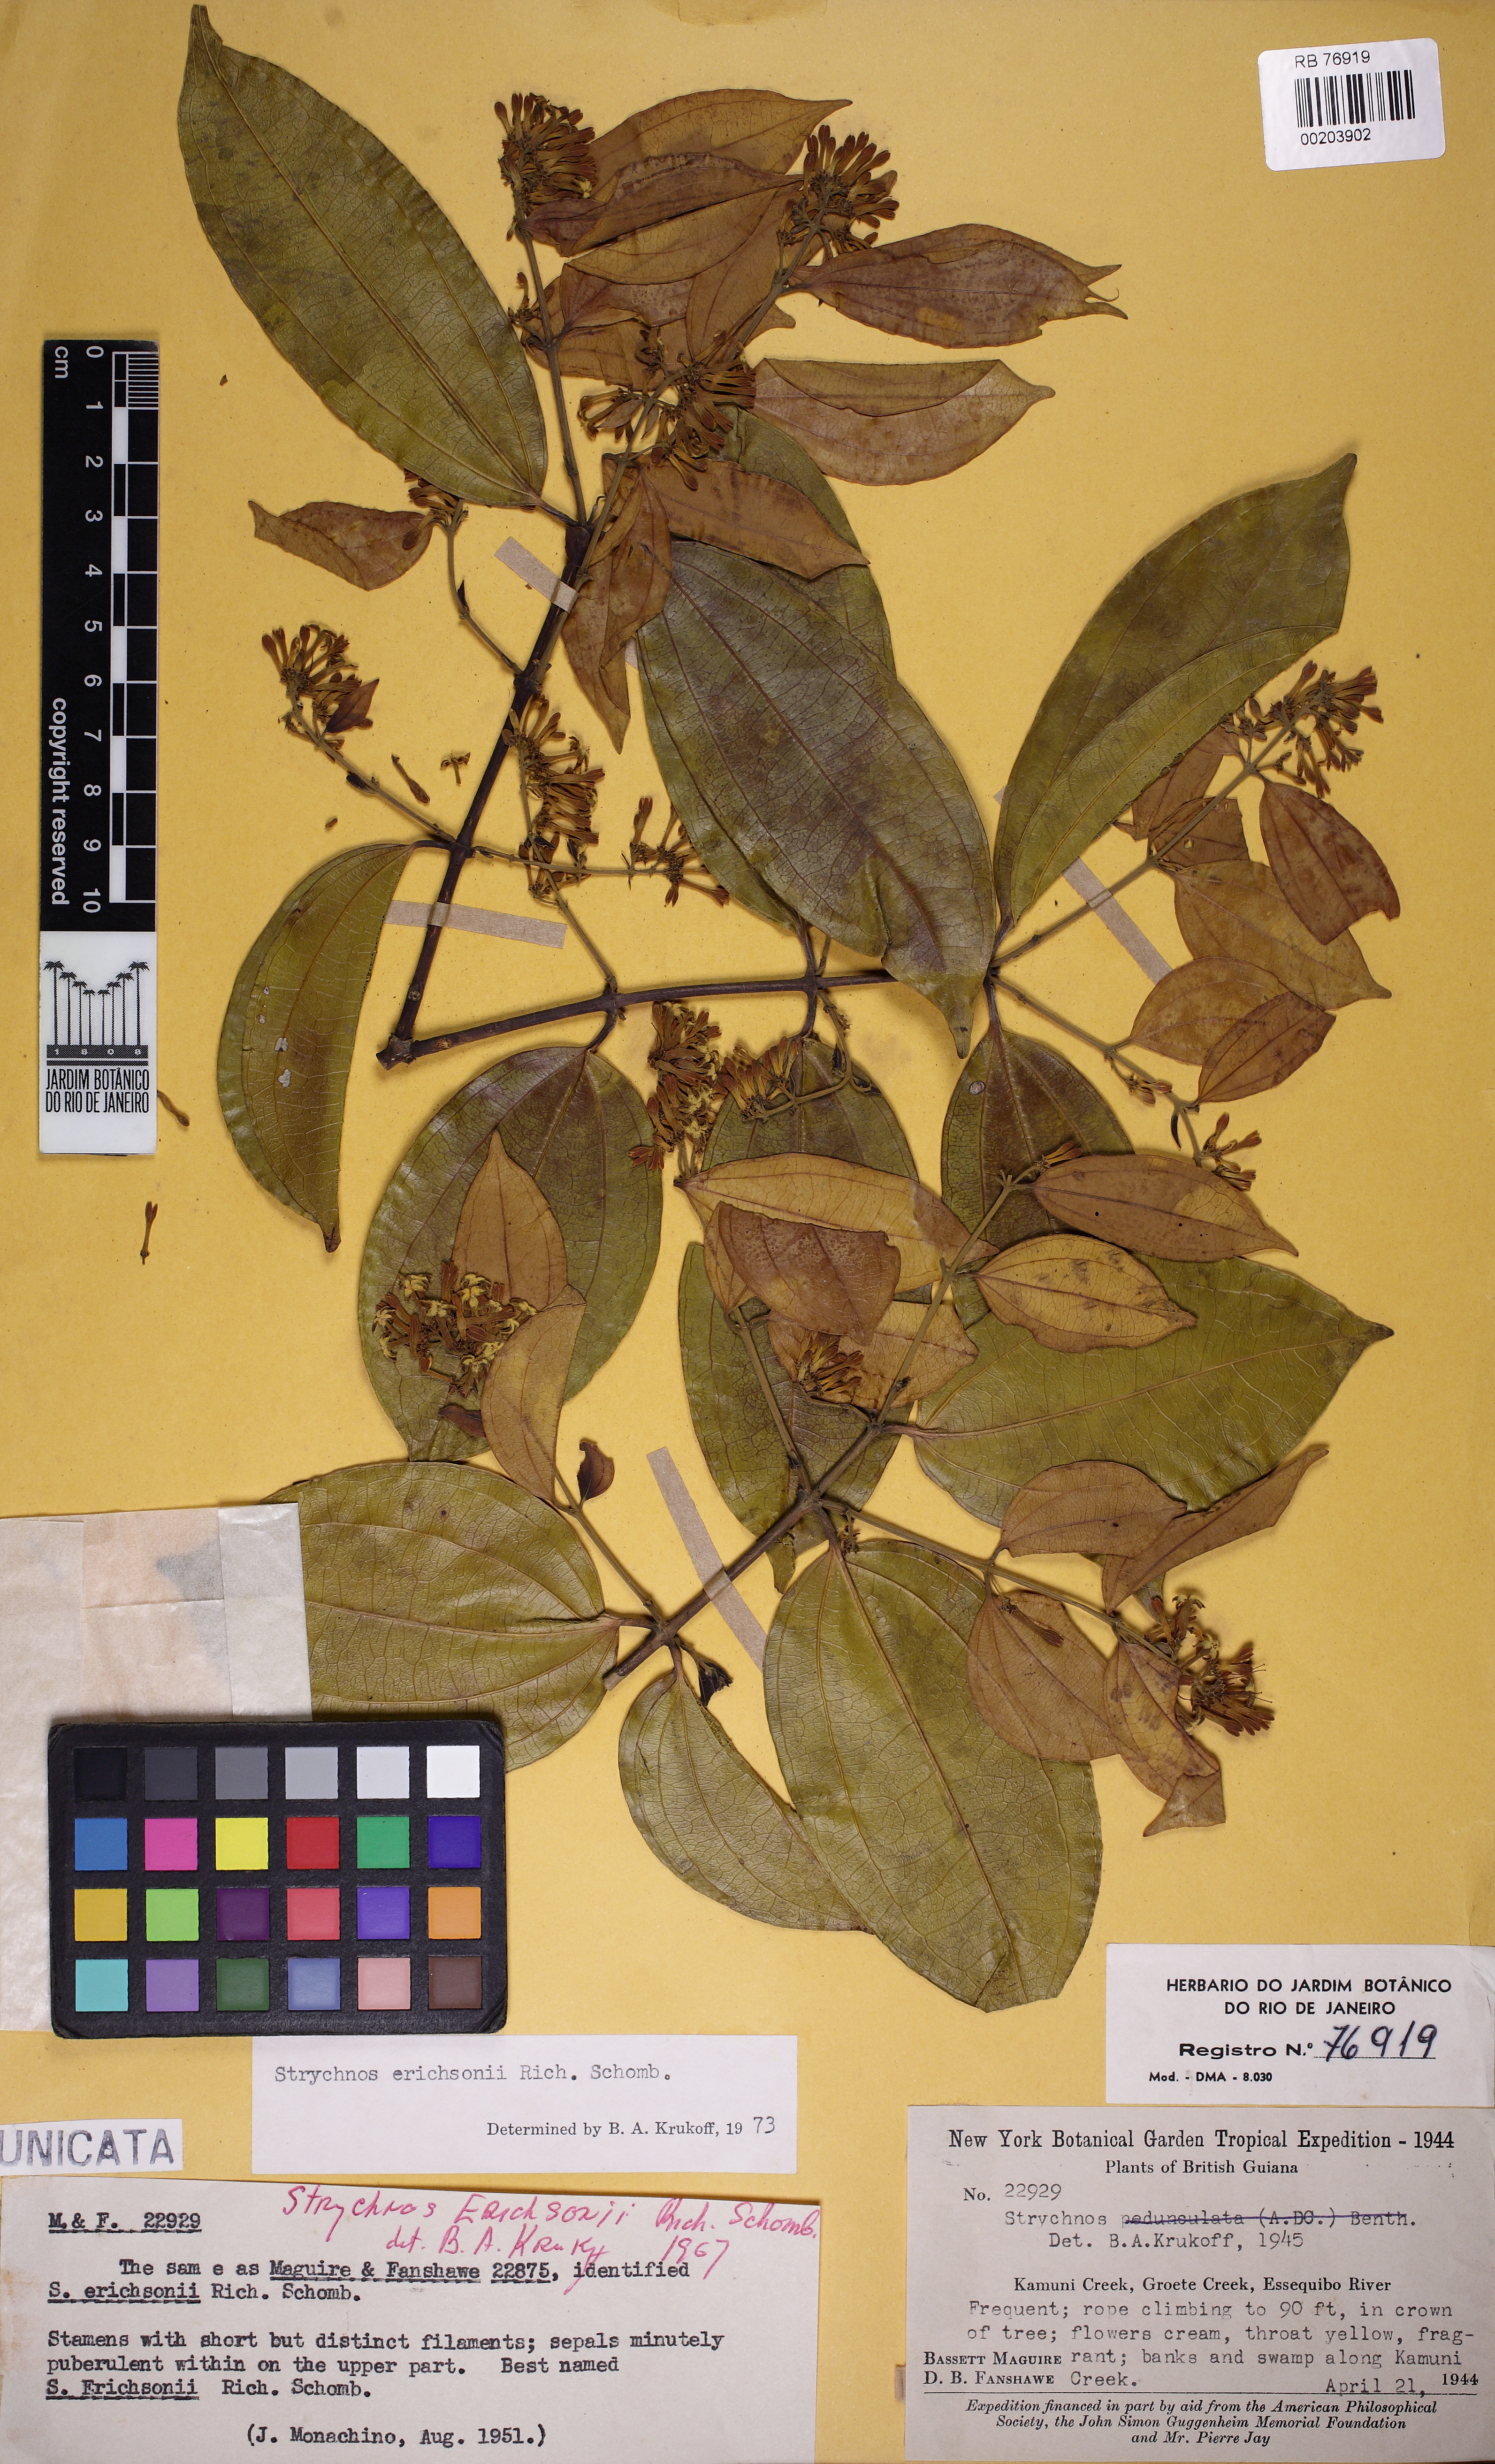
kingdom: Plantae
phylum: Tracheophyta
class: Magnoliopsida
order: Gentianales
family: Loganiaceae
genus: Strychnos
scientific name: Strychnos erichsonii
